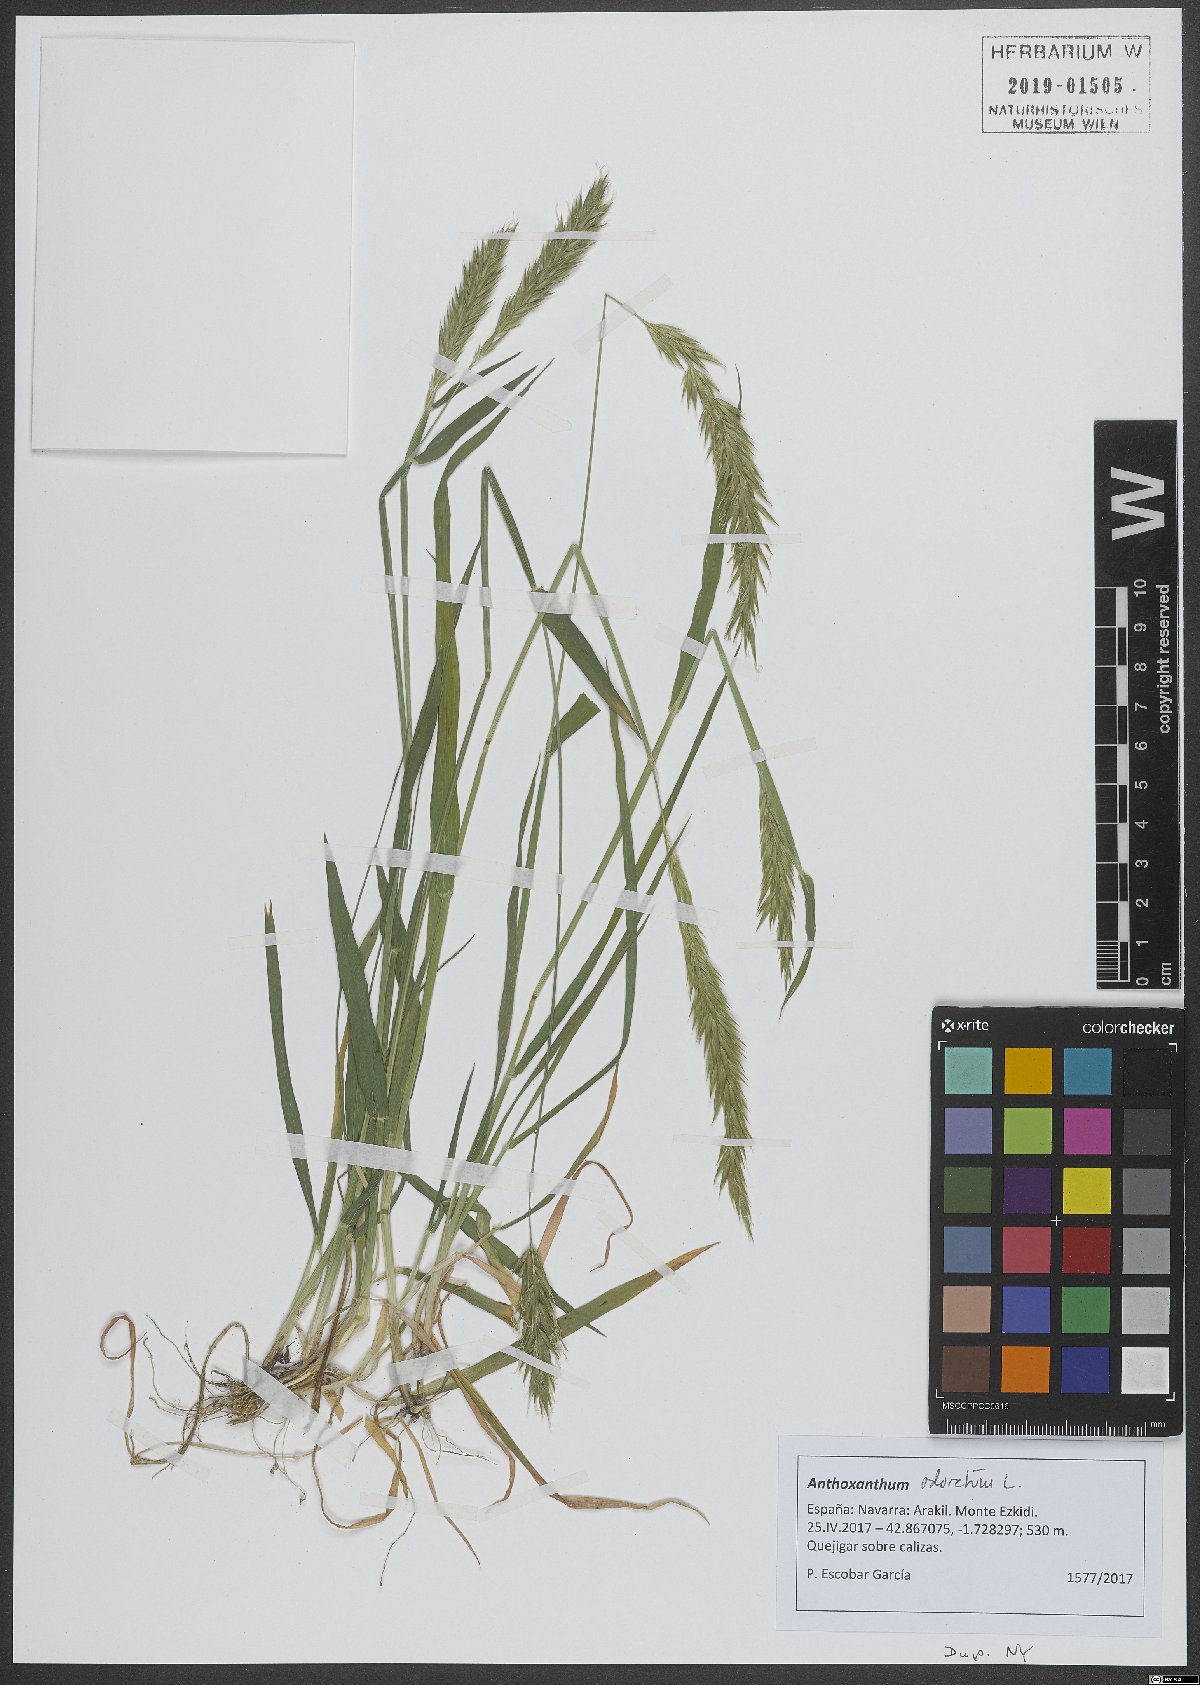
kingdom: Plantae
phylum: Tracheophyta
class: Liliopsida
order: Poales
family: Poaceae
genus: Anthoxanthum
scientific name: Anthoxanthum odoratum
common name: Sweet vernalgrass
